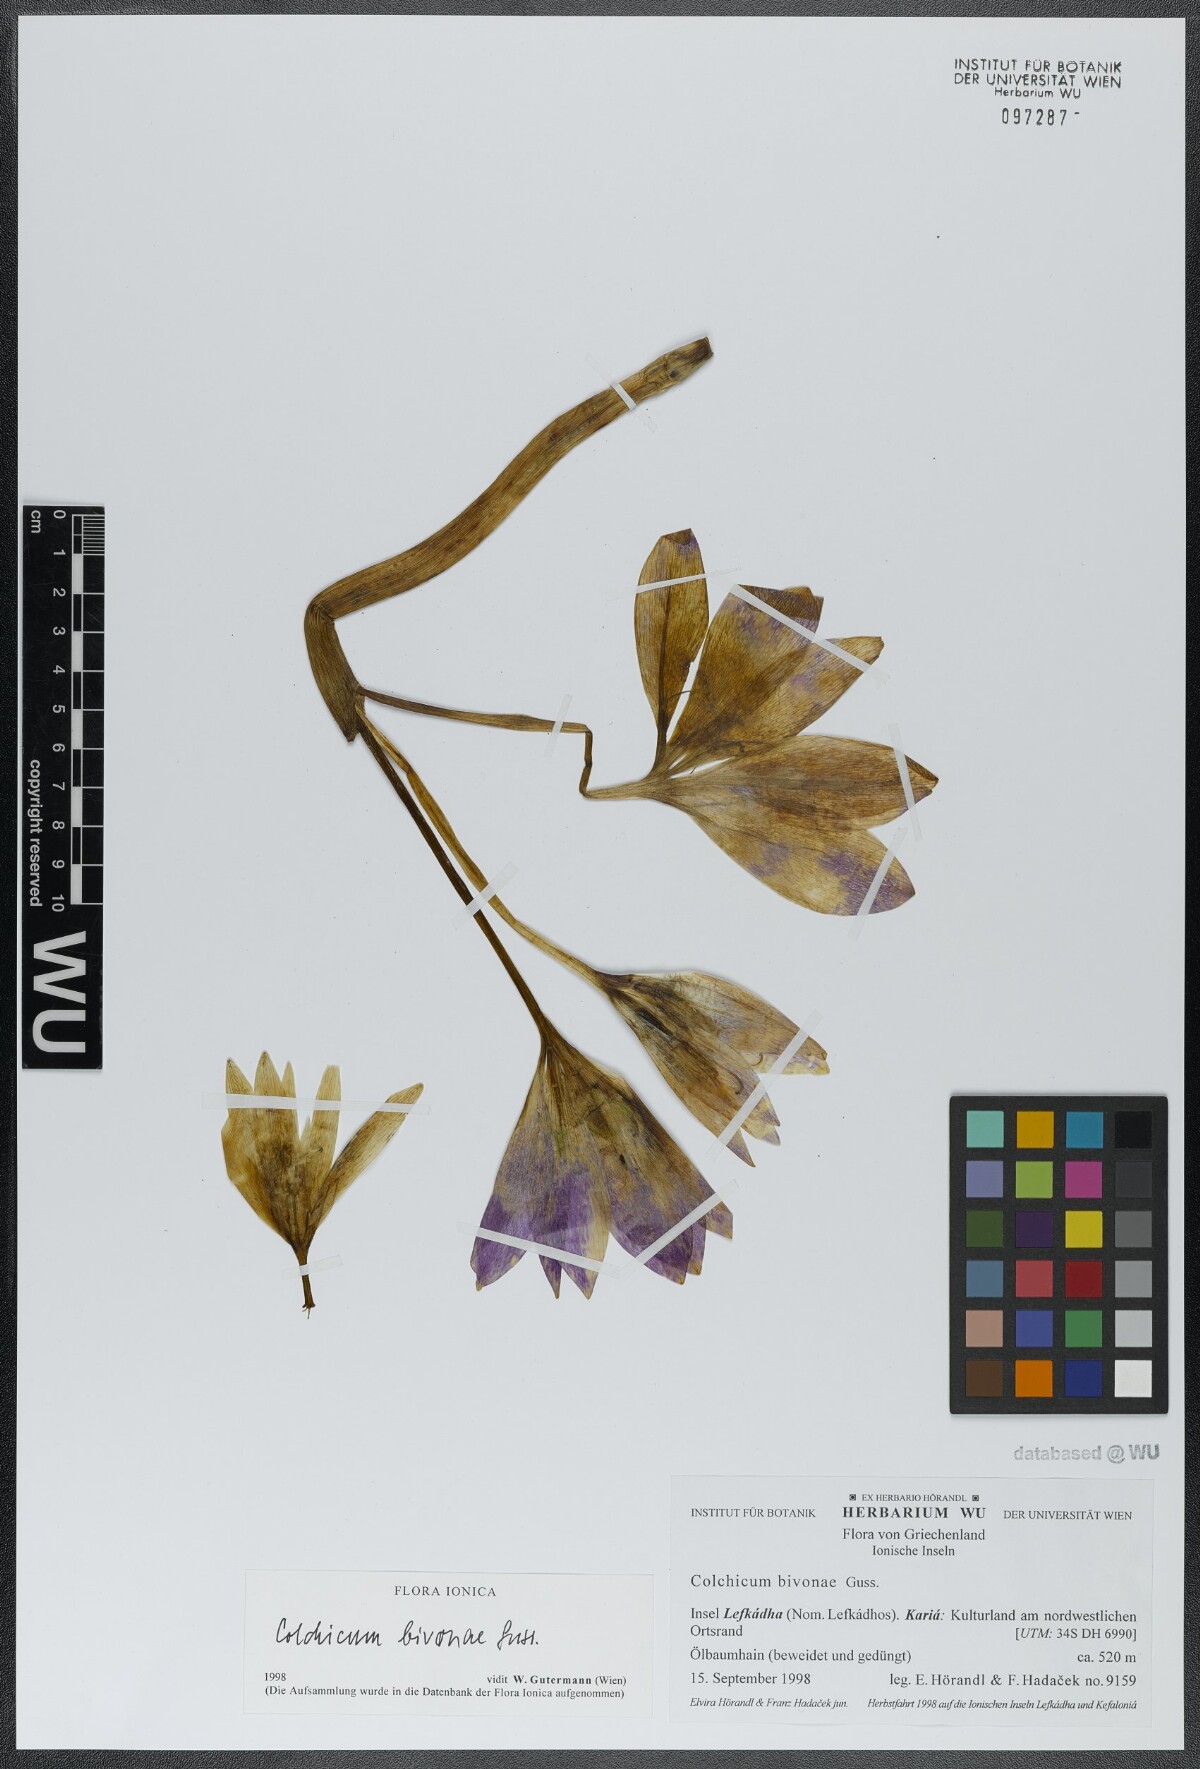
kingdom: Plantae
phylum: Tracheophyta
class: Liliopsida
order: Liliales
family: Colchicaceae
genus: Colchicum
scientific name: Colchicum bivonae
